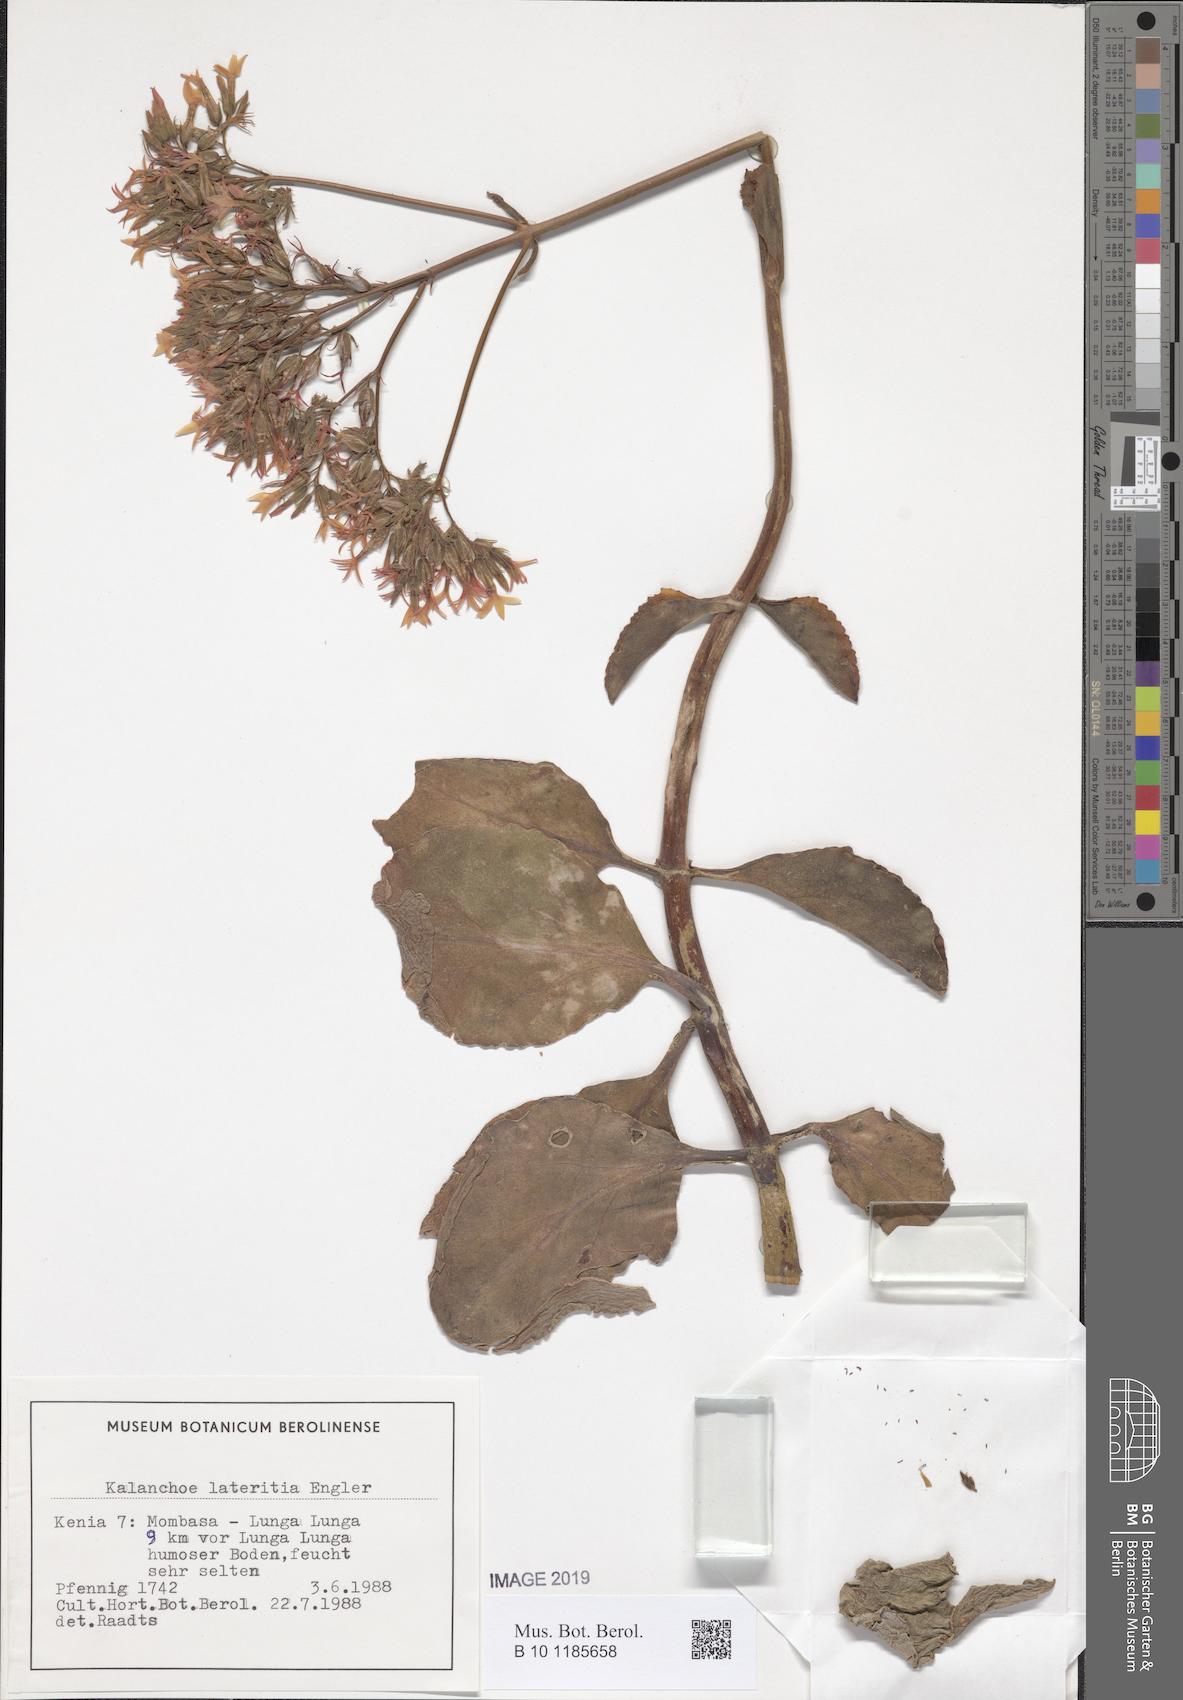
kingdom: Plantae
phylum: Tracheophyta
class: Magnoliopsida
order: Saxifragales
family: Crassulaceae
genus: Kalanchoe
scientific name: Kalanchoe lateritia
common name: Kalanchoe
